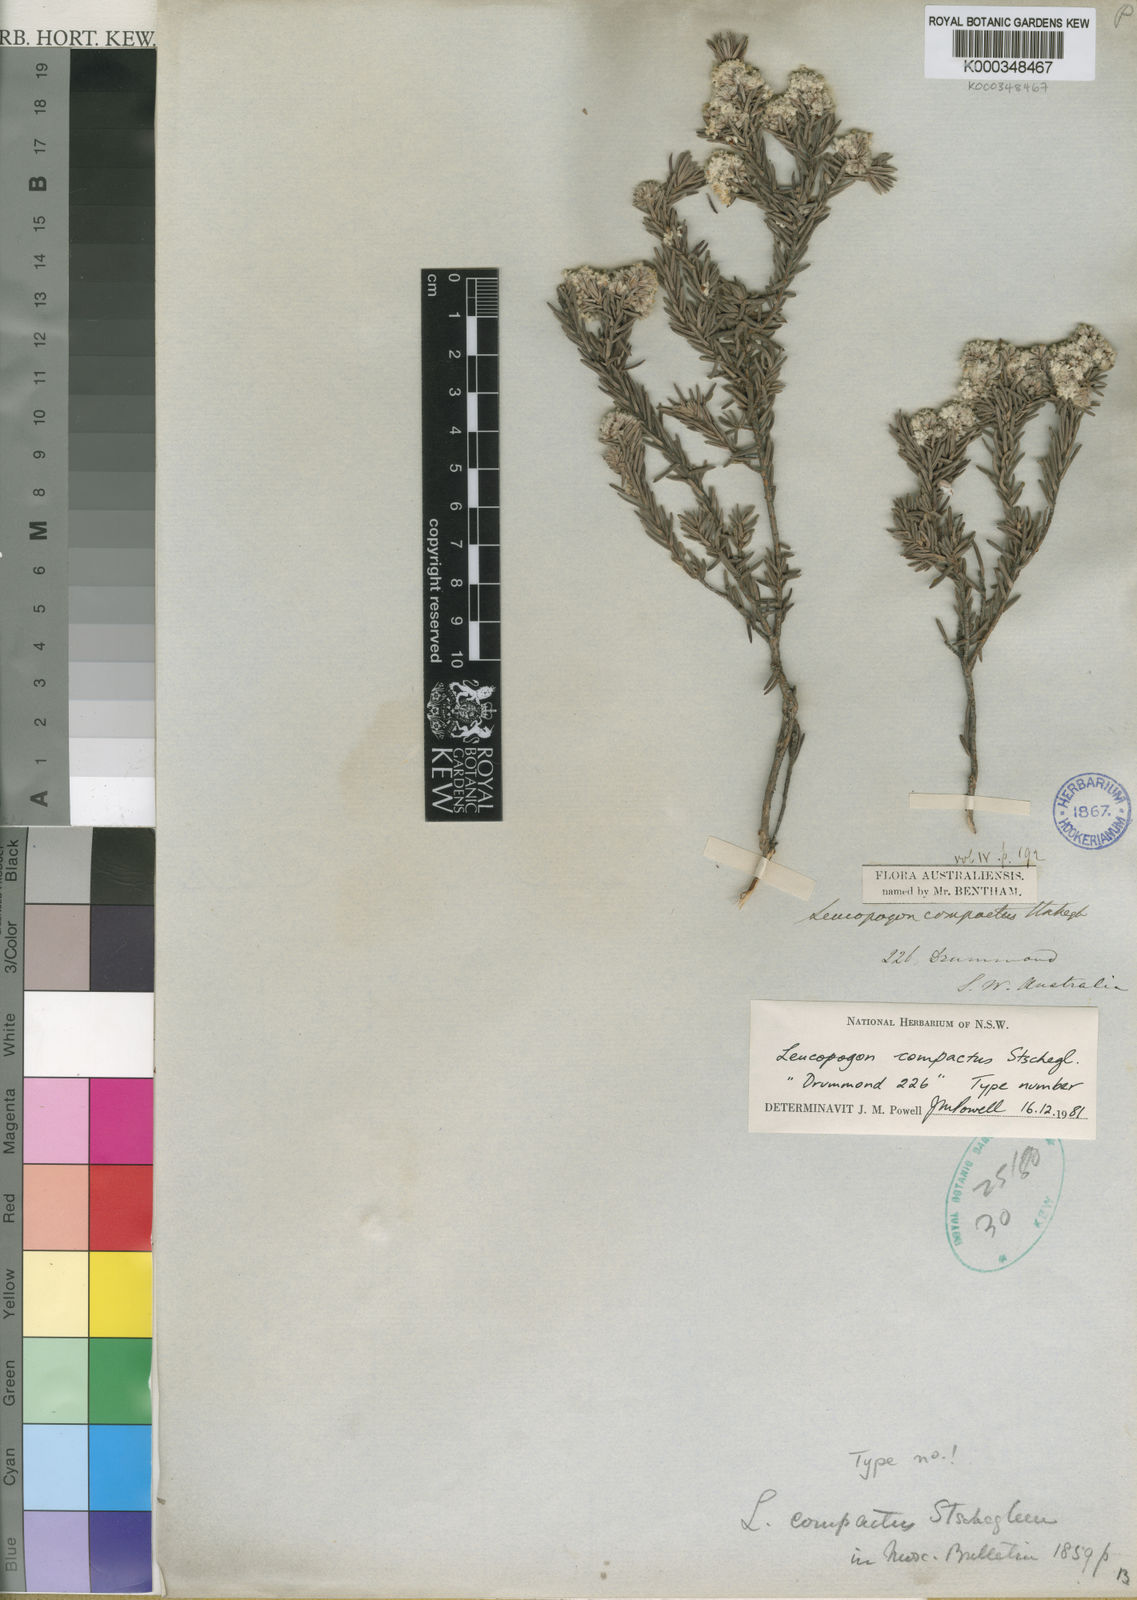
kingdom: Plantae
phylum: Tracheophyta
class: Magnoliopsida
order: Ericales
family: Ericaceae
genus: Leucopogon
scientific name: Leucopogon compactus
